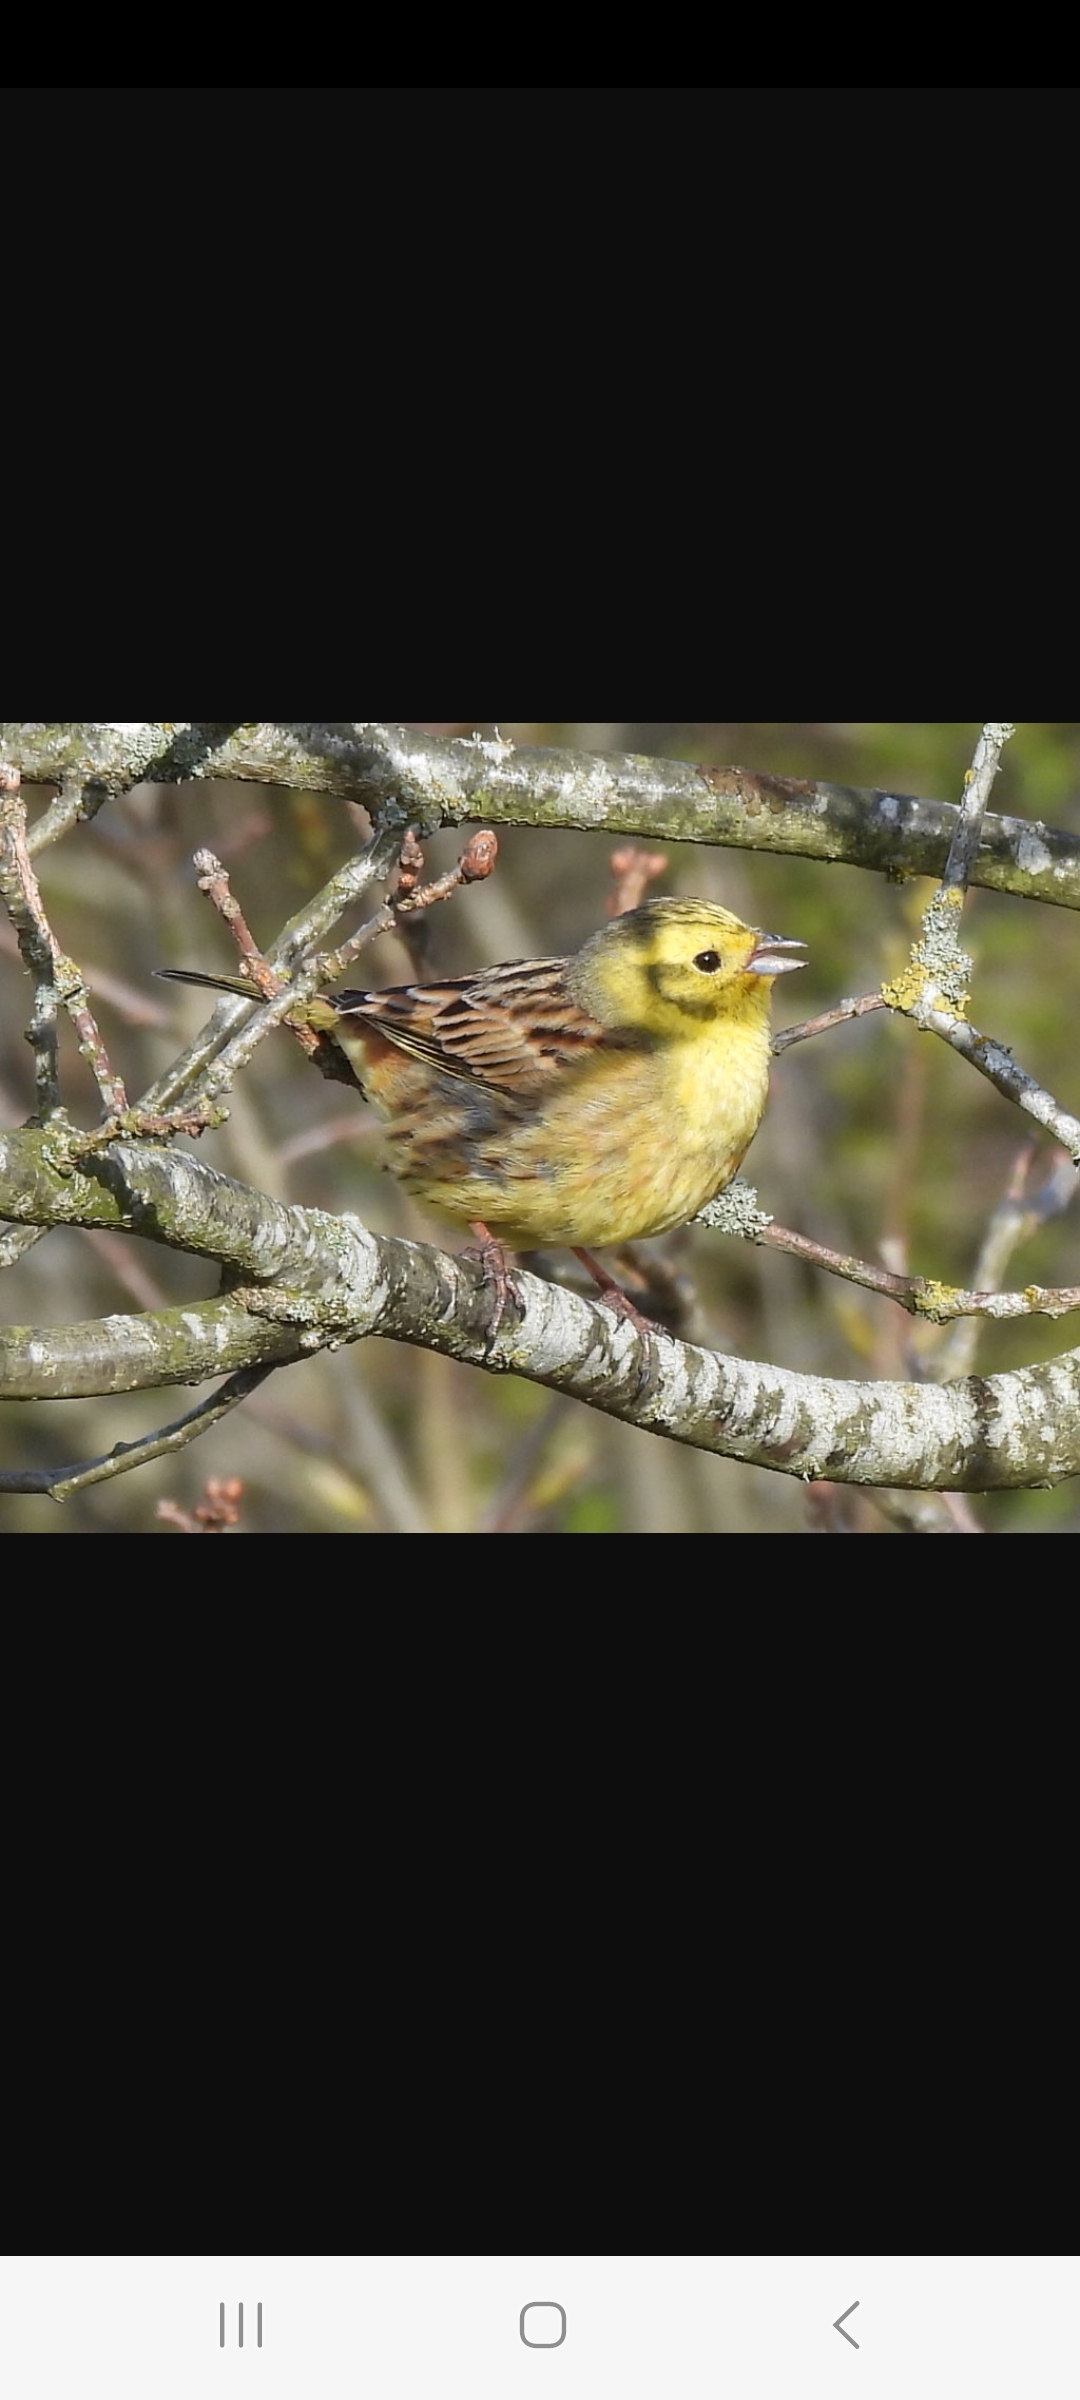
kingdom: Animalia
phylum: Chordata
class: Aves
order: Passeriformes
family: Emberizidae
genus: Emberiza
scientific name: Emberiza citrinella
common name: Gulspurv
